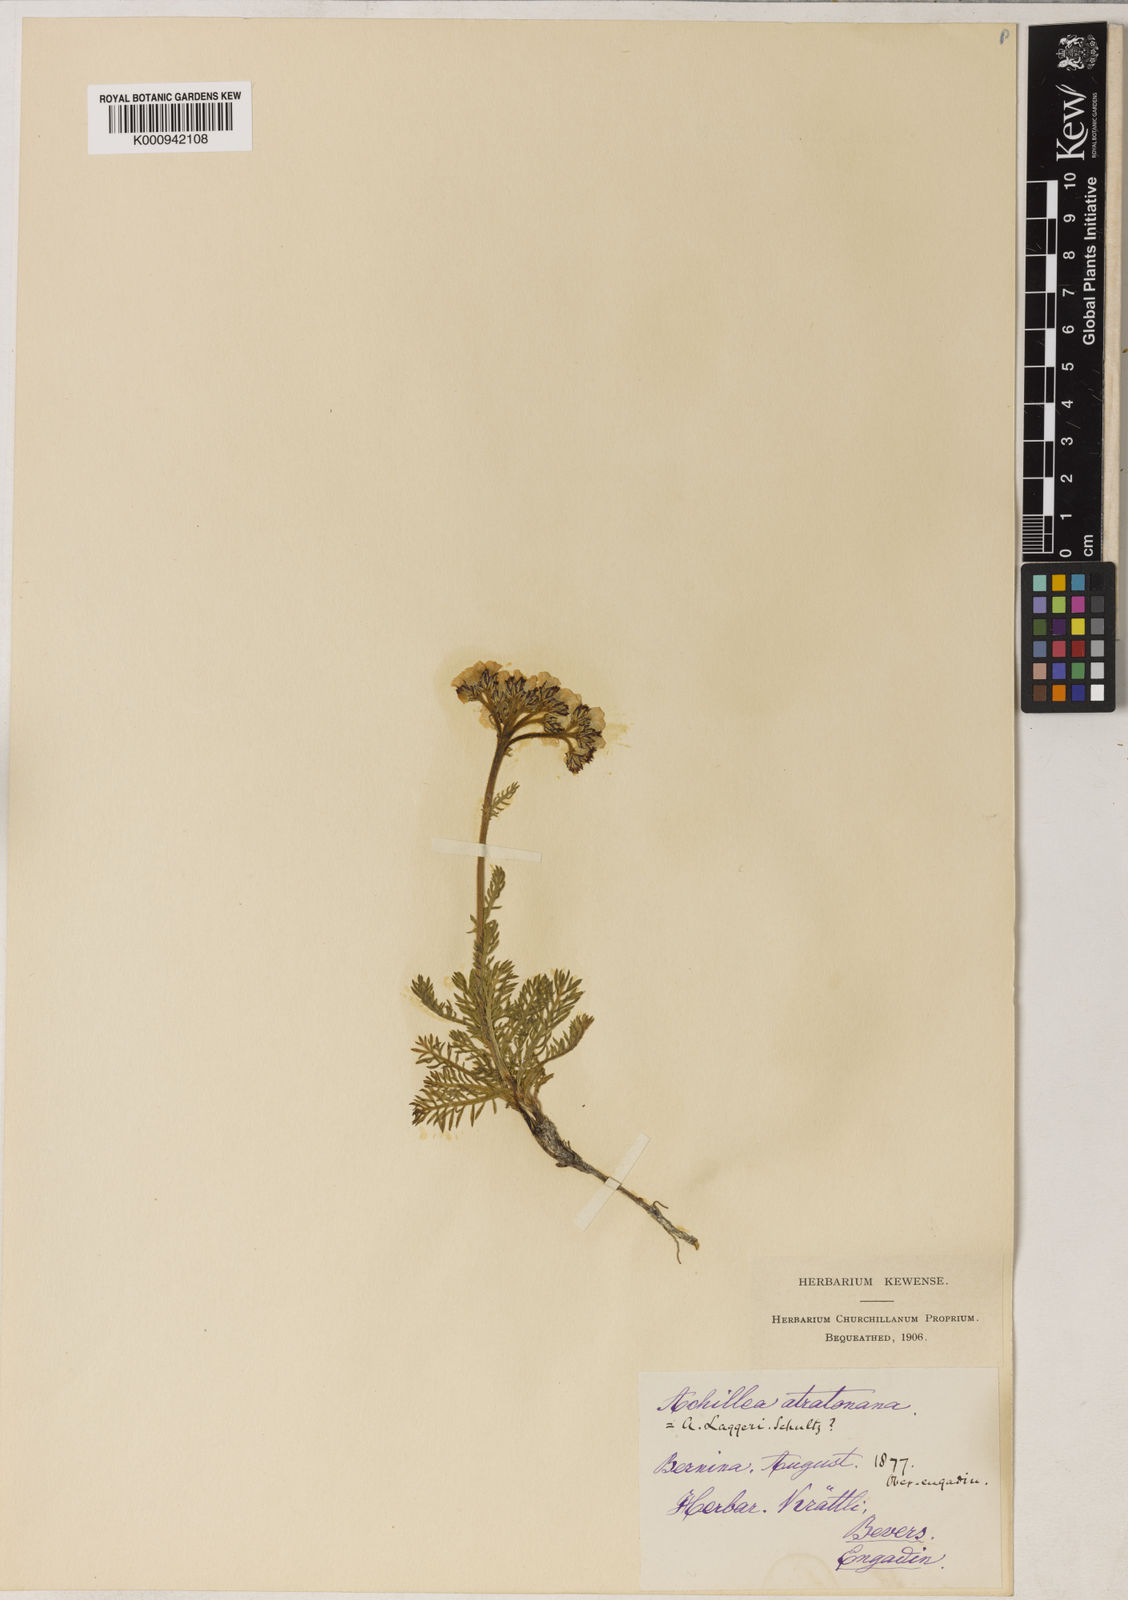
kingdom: Plantae
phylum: Tracheophyta
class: Magnoliopsida
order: Asterales
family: Asteraceae
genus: Achillea
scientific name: Achillea atrata
